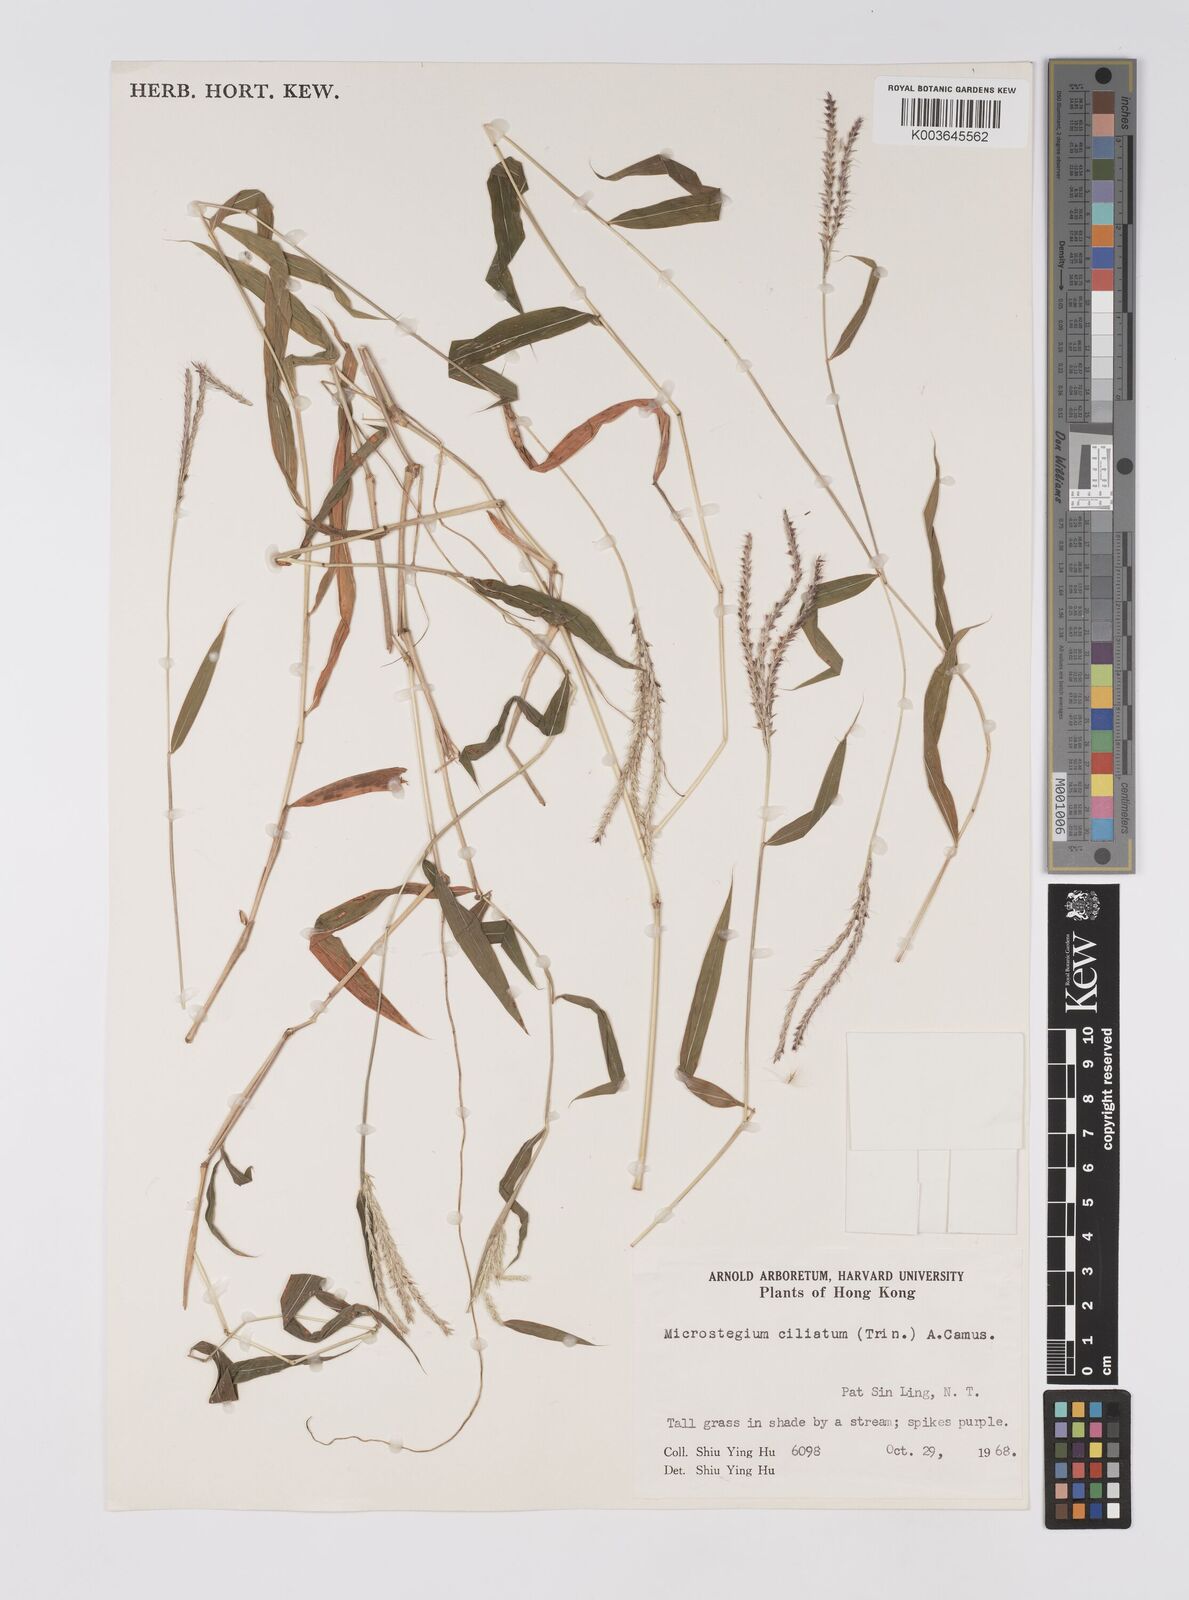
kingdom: Plantae
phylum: Tracheophyta
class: Liliopsida
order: Poales
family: Poaceae
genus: Microstegium
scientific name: Microstegium fasciculatum
